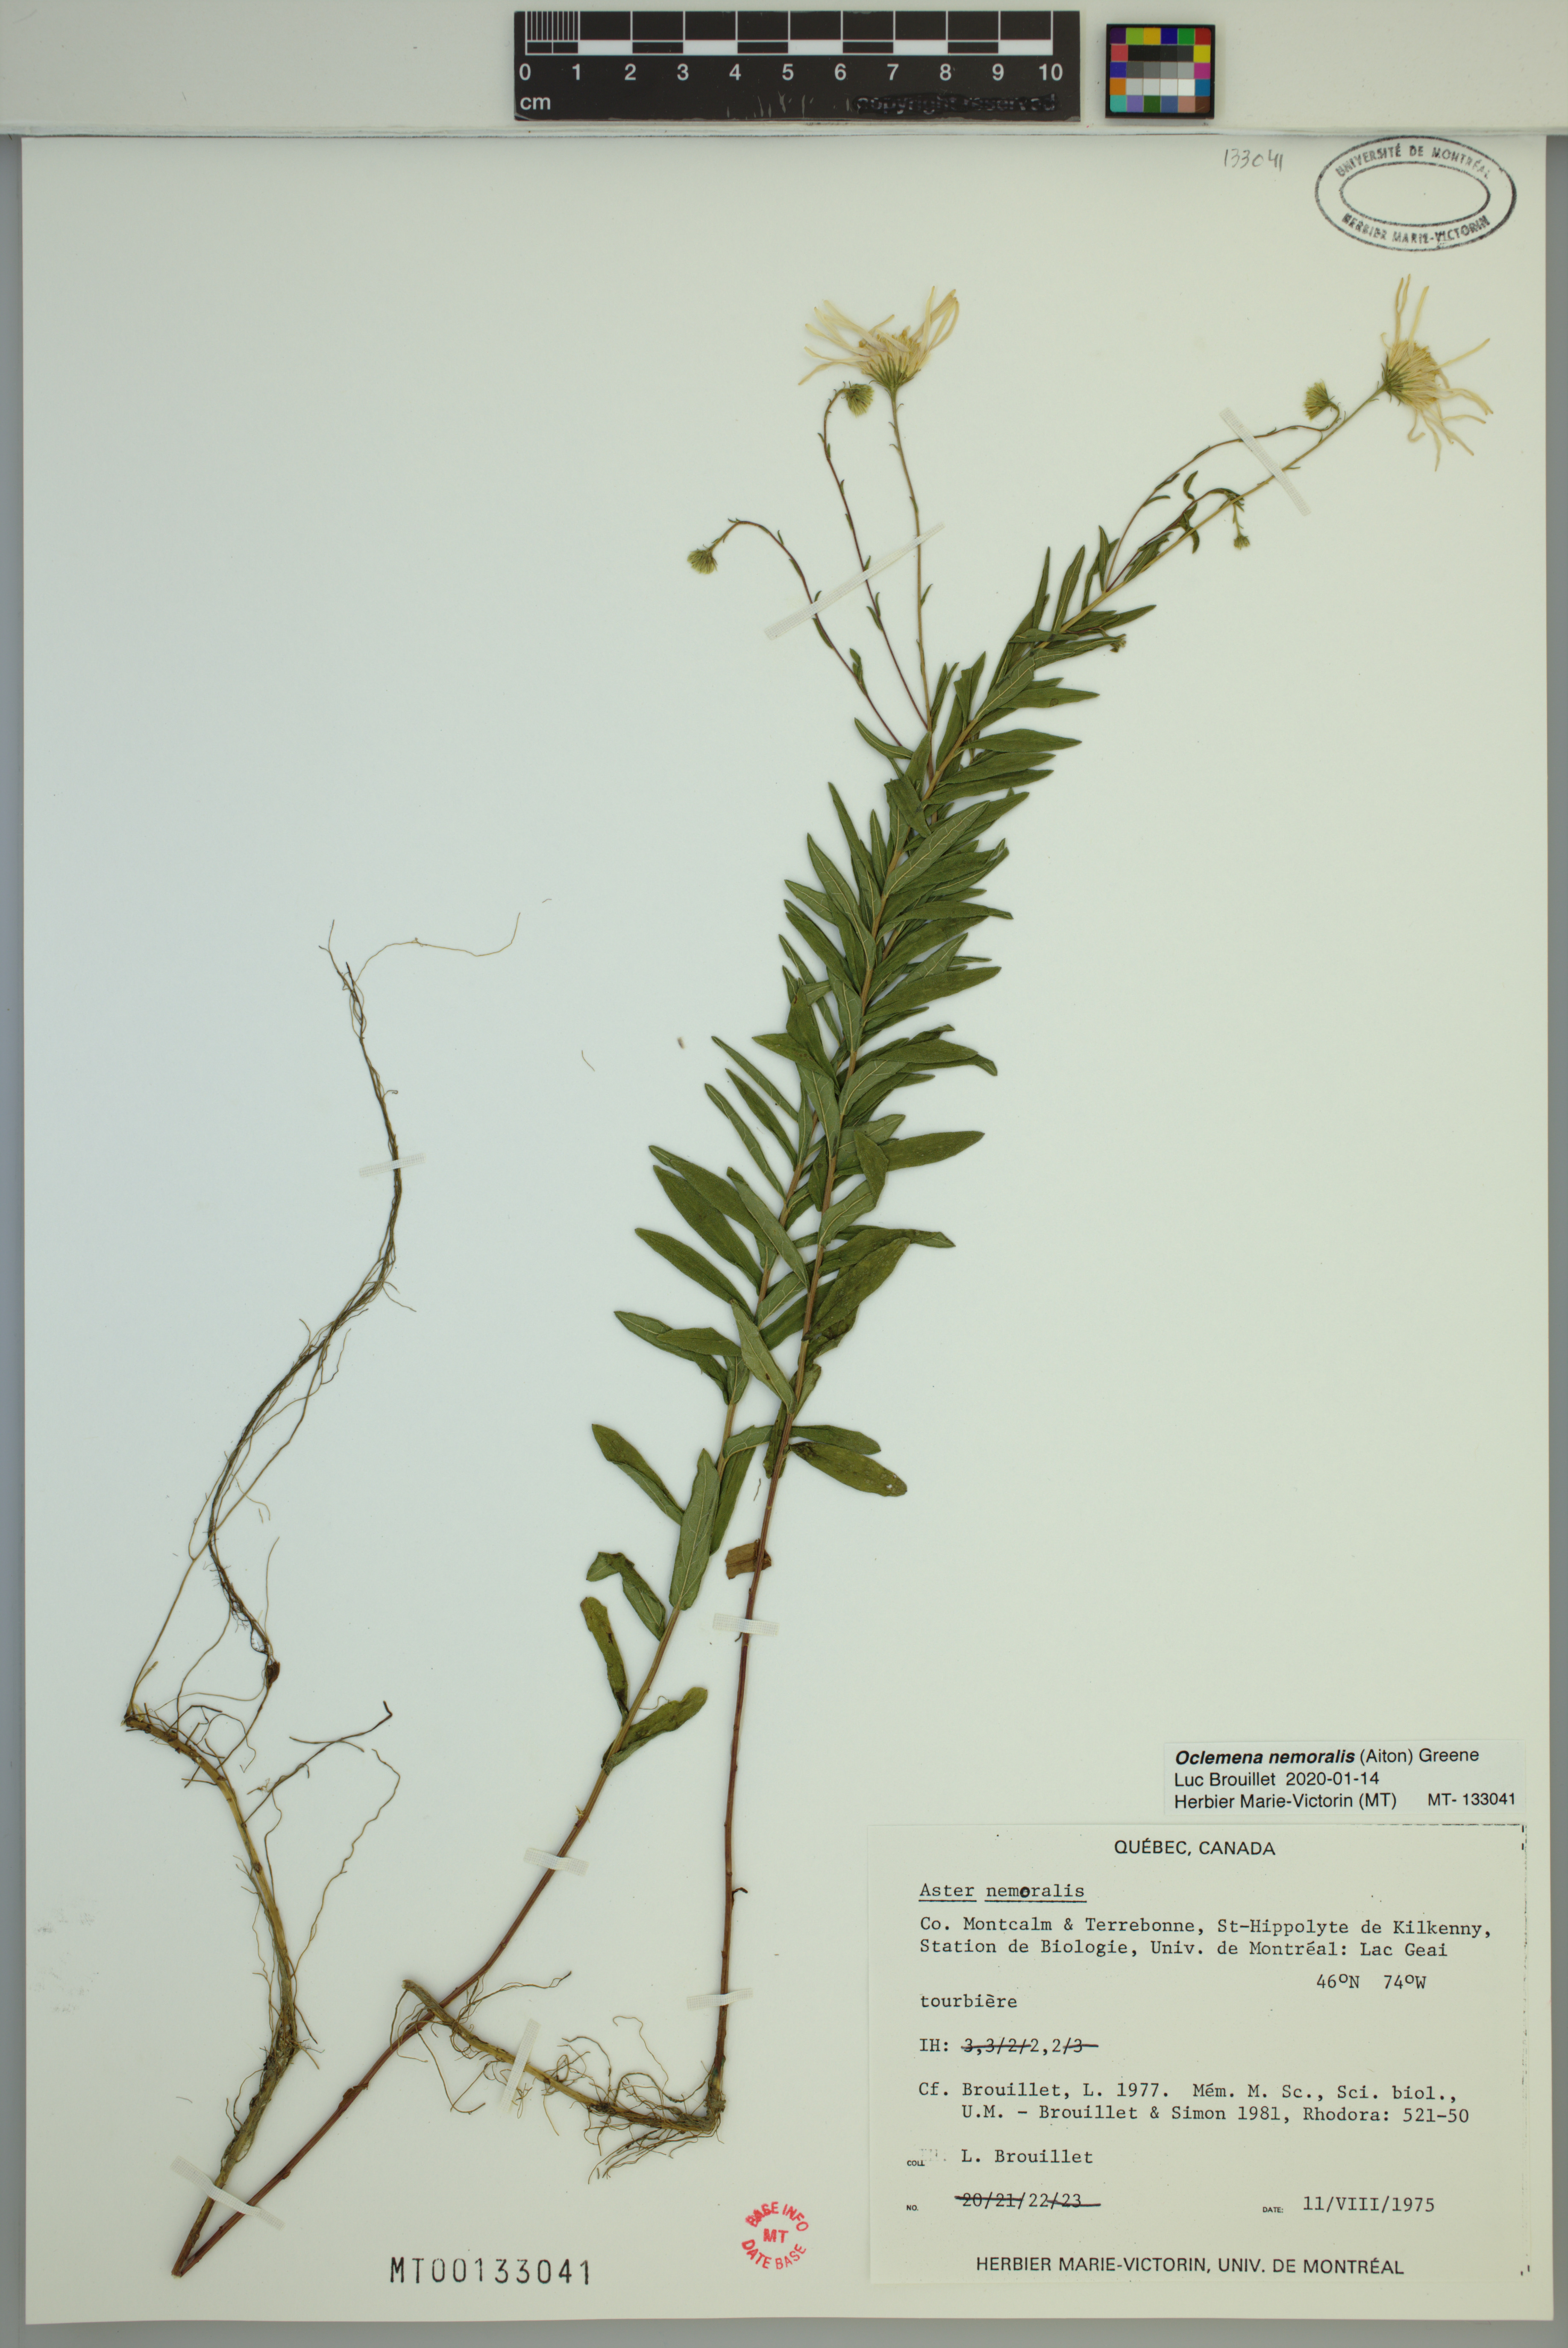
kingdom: Plantae
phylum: Tracheophyta
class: Magnoliopsida
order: Asterales
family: Asteraceae
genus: Oclemena
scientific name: Oclemena nemoralis
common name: Bog aster
